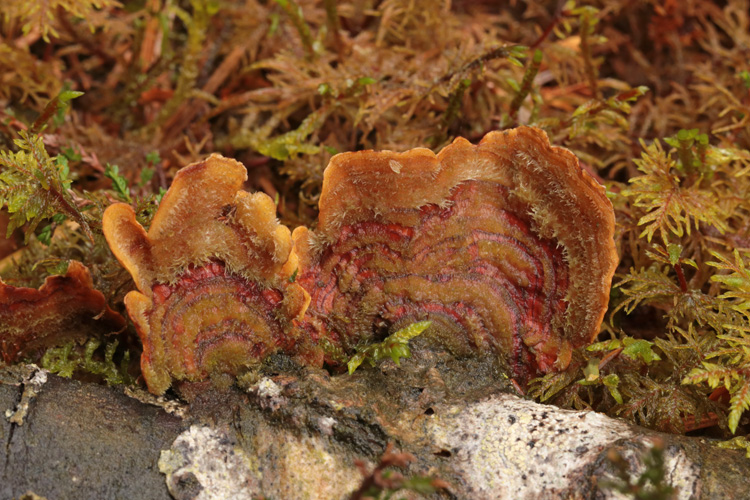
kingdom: Fungi
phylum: Basidiomycota
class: Agaricomycetes
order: Russulales
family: Stereaceae
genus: Stereum
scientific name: Stereum hirsutum
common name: håret lædersvamp
